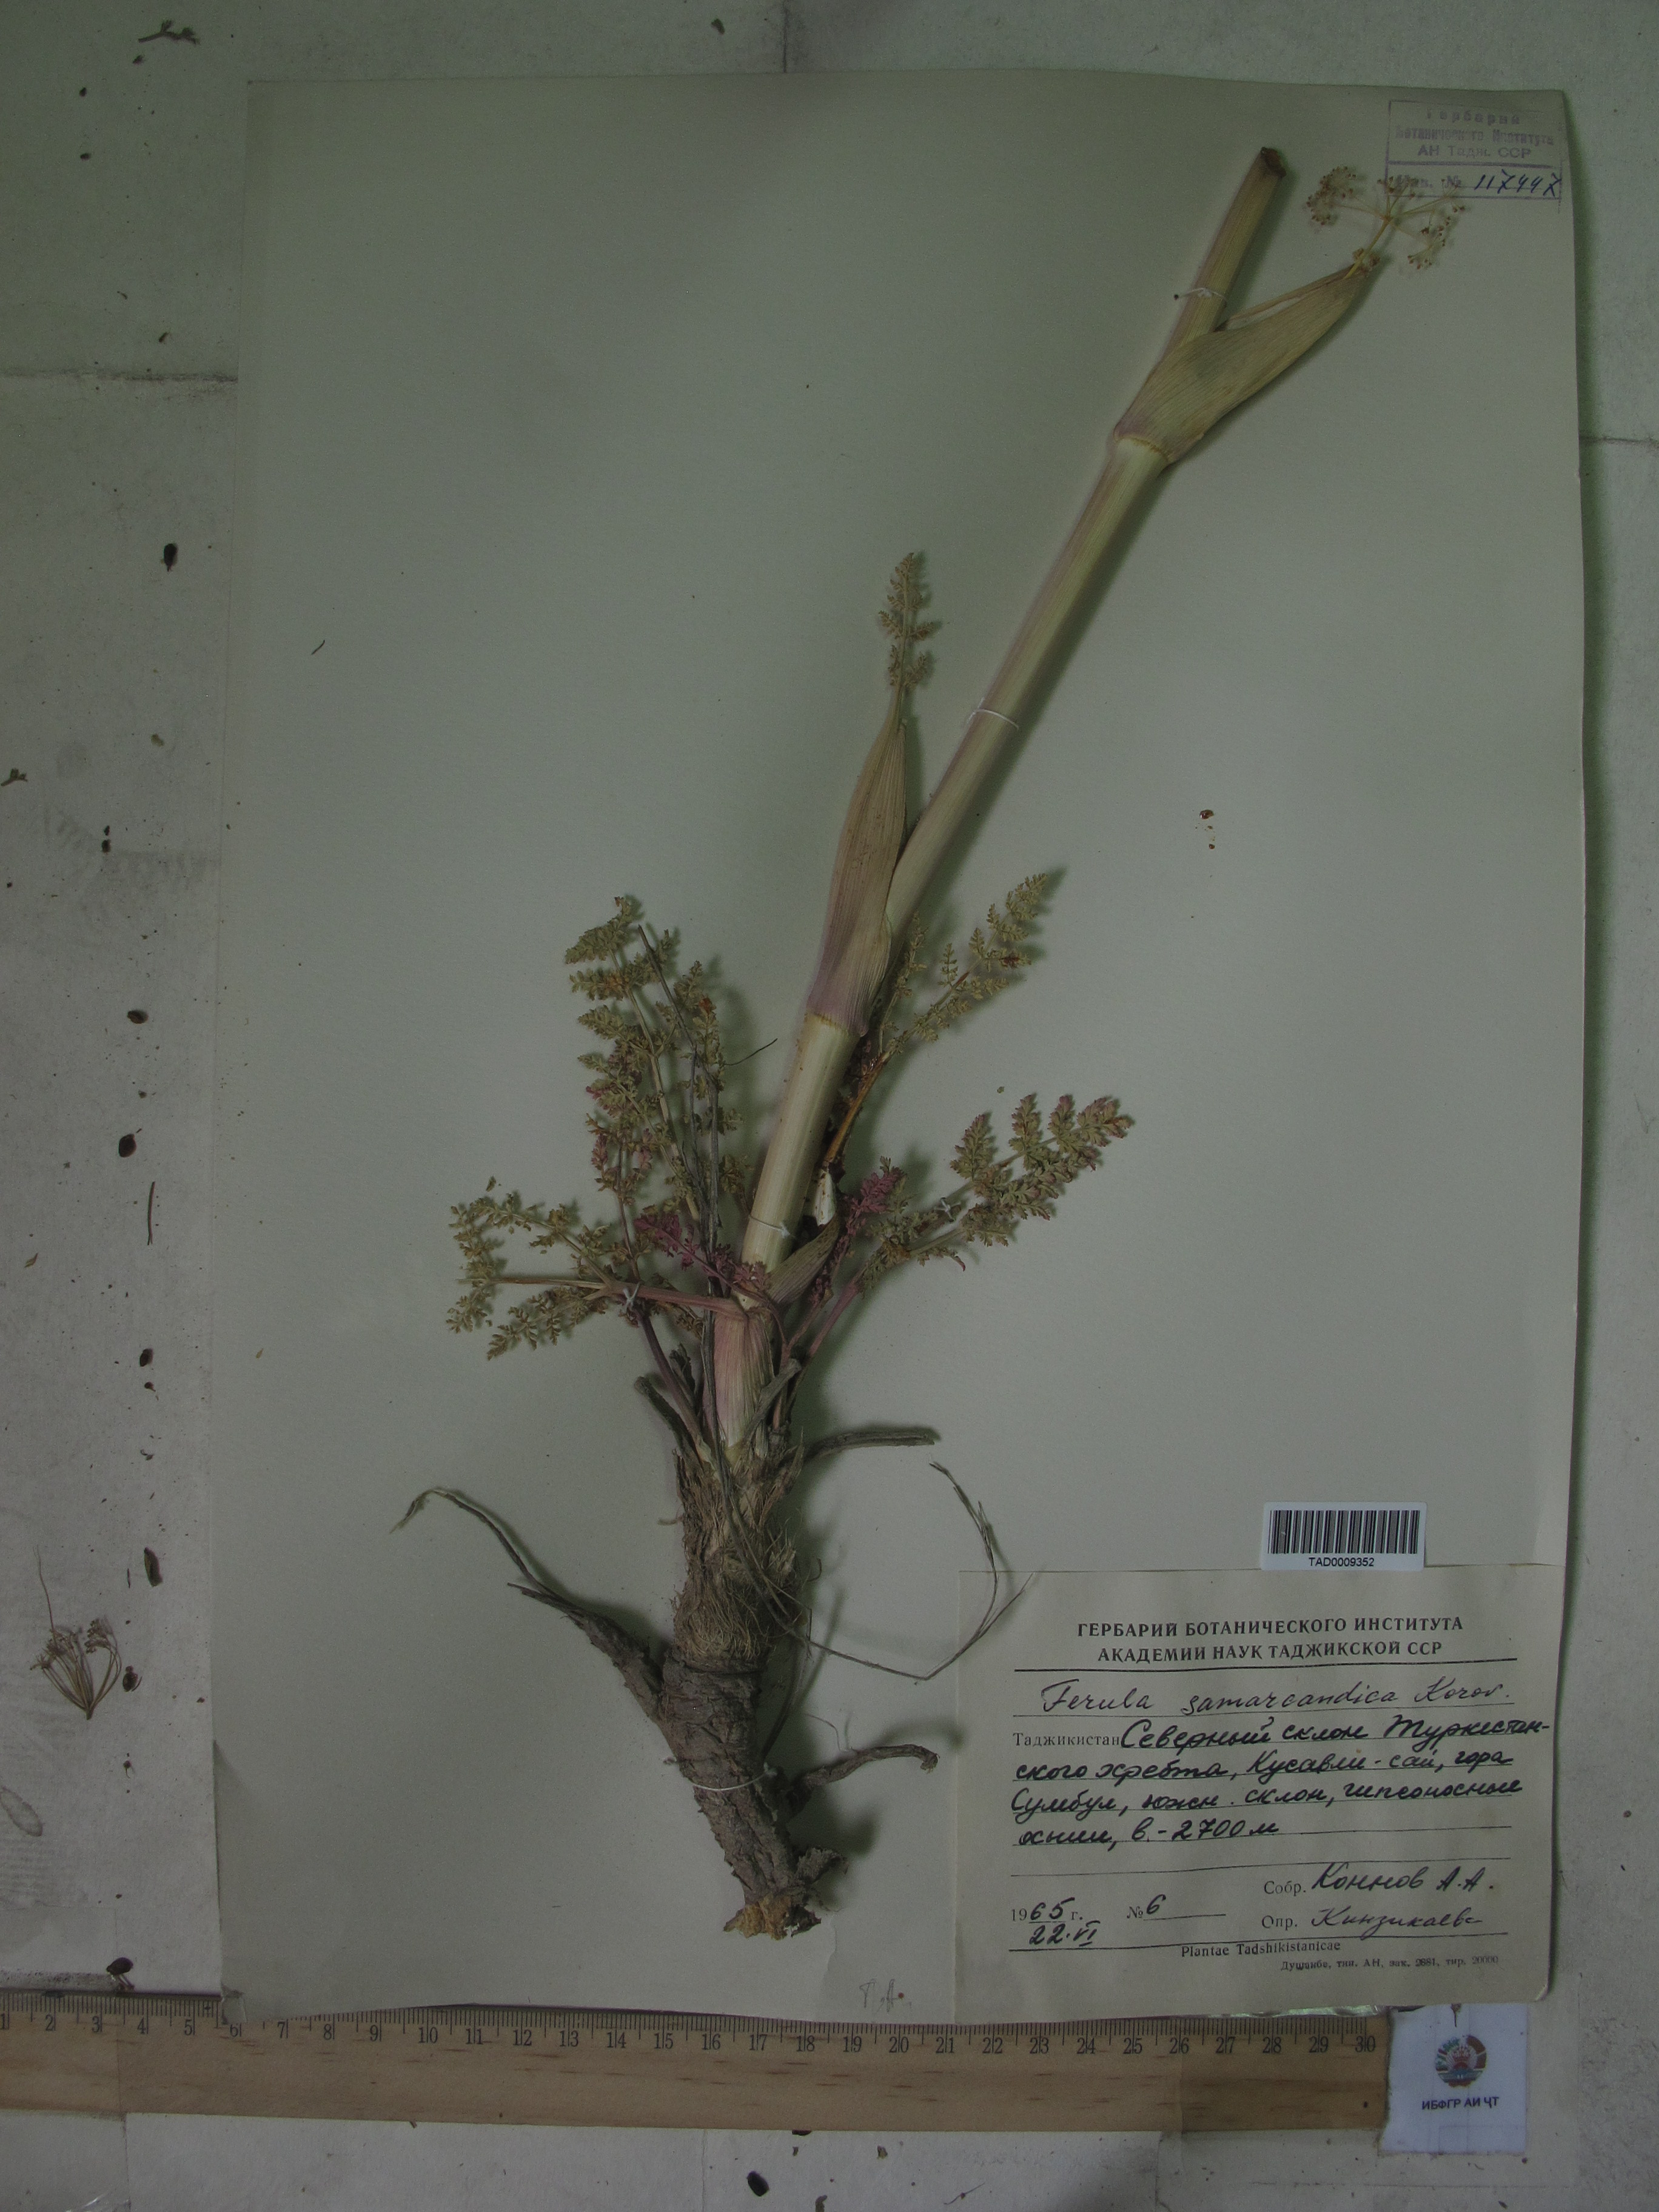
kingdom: Plantae
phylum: Tracheophyta
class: Magnoliopsida
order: Apiales
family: Apiaceae
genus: Ferula
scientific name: Ferula samarkandica
